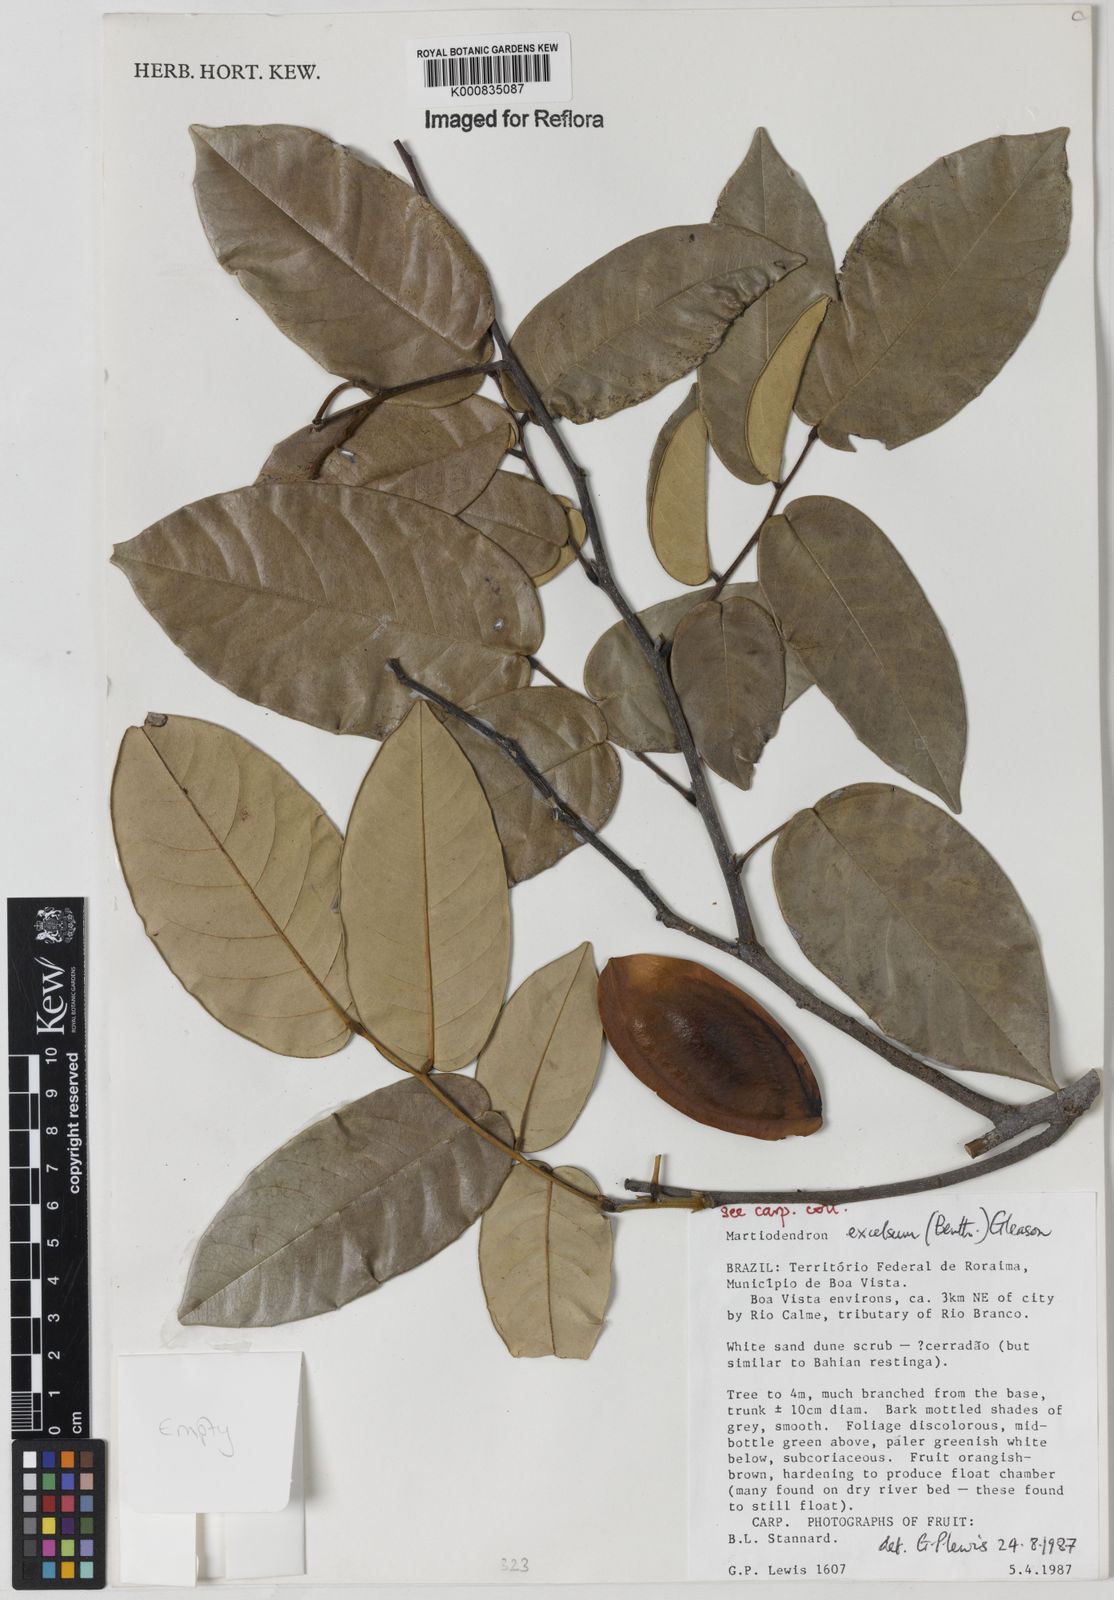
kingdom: Plantae
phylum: Tracheophyta
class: Magnoliopsida
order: Fabales
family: Fabaceae
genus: Martiodendron
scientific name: Martiodendron excelsum
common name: Tatabuballi
